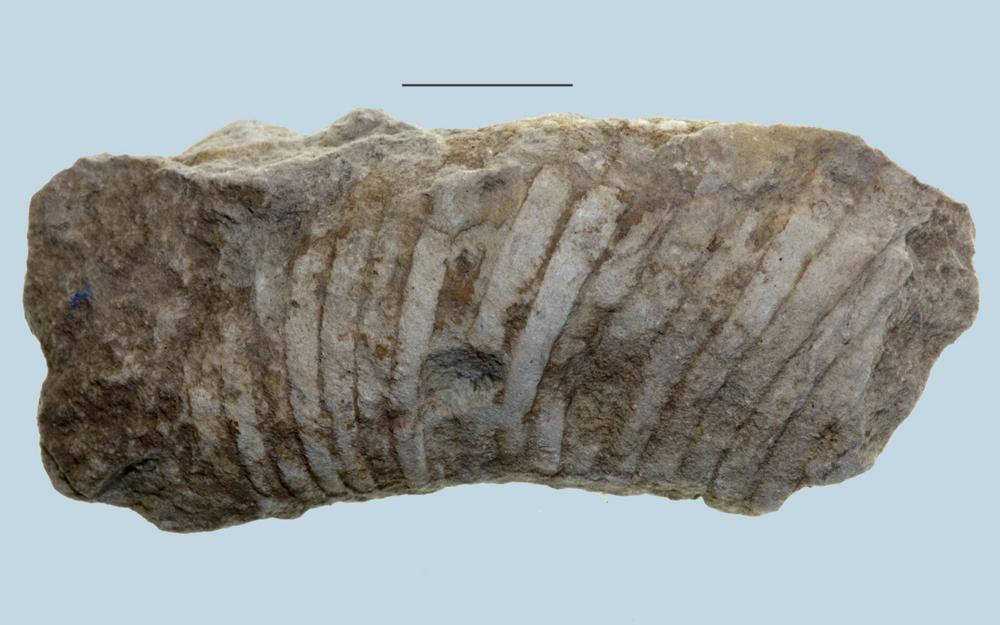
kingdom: Animalia
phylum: Mollusca
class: Cephalopoda
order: Nautilida
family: Nautilidae
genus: Cyrtoceras
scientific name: Cyrtoceras
